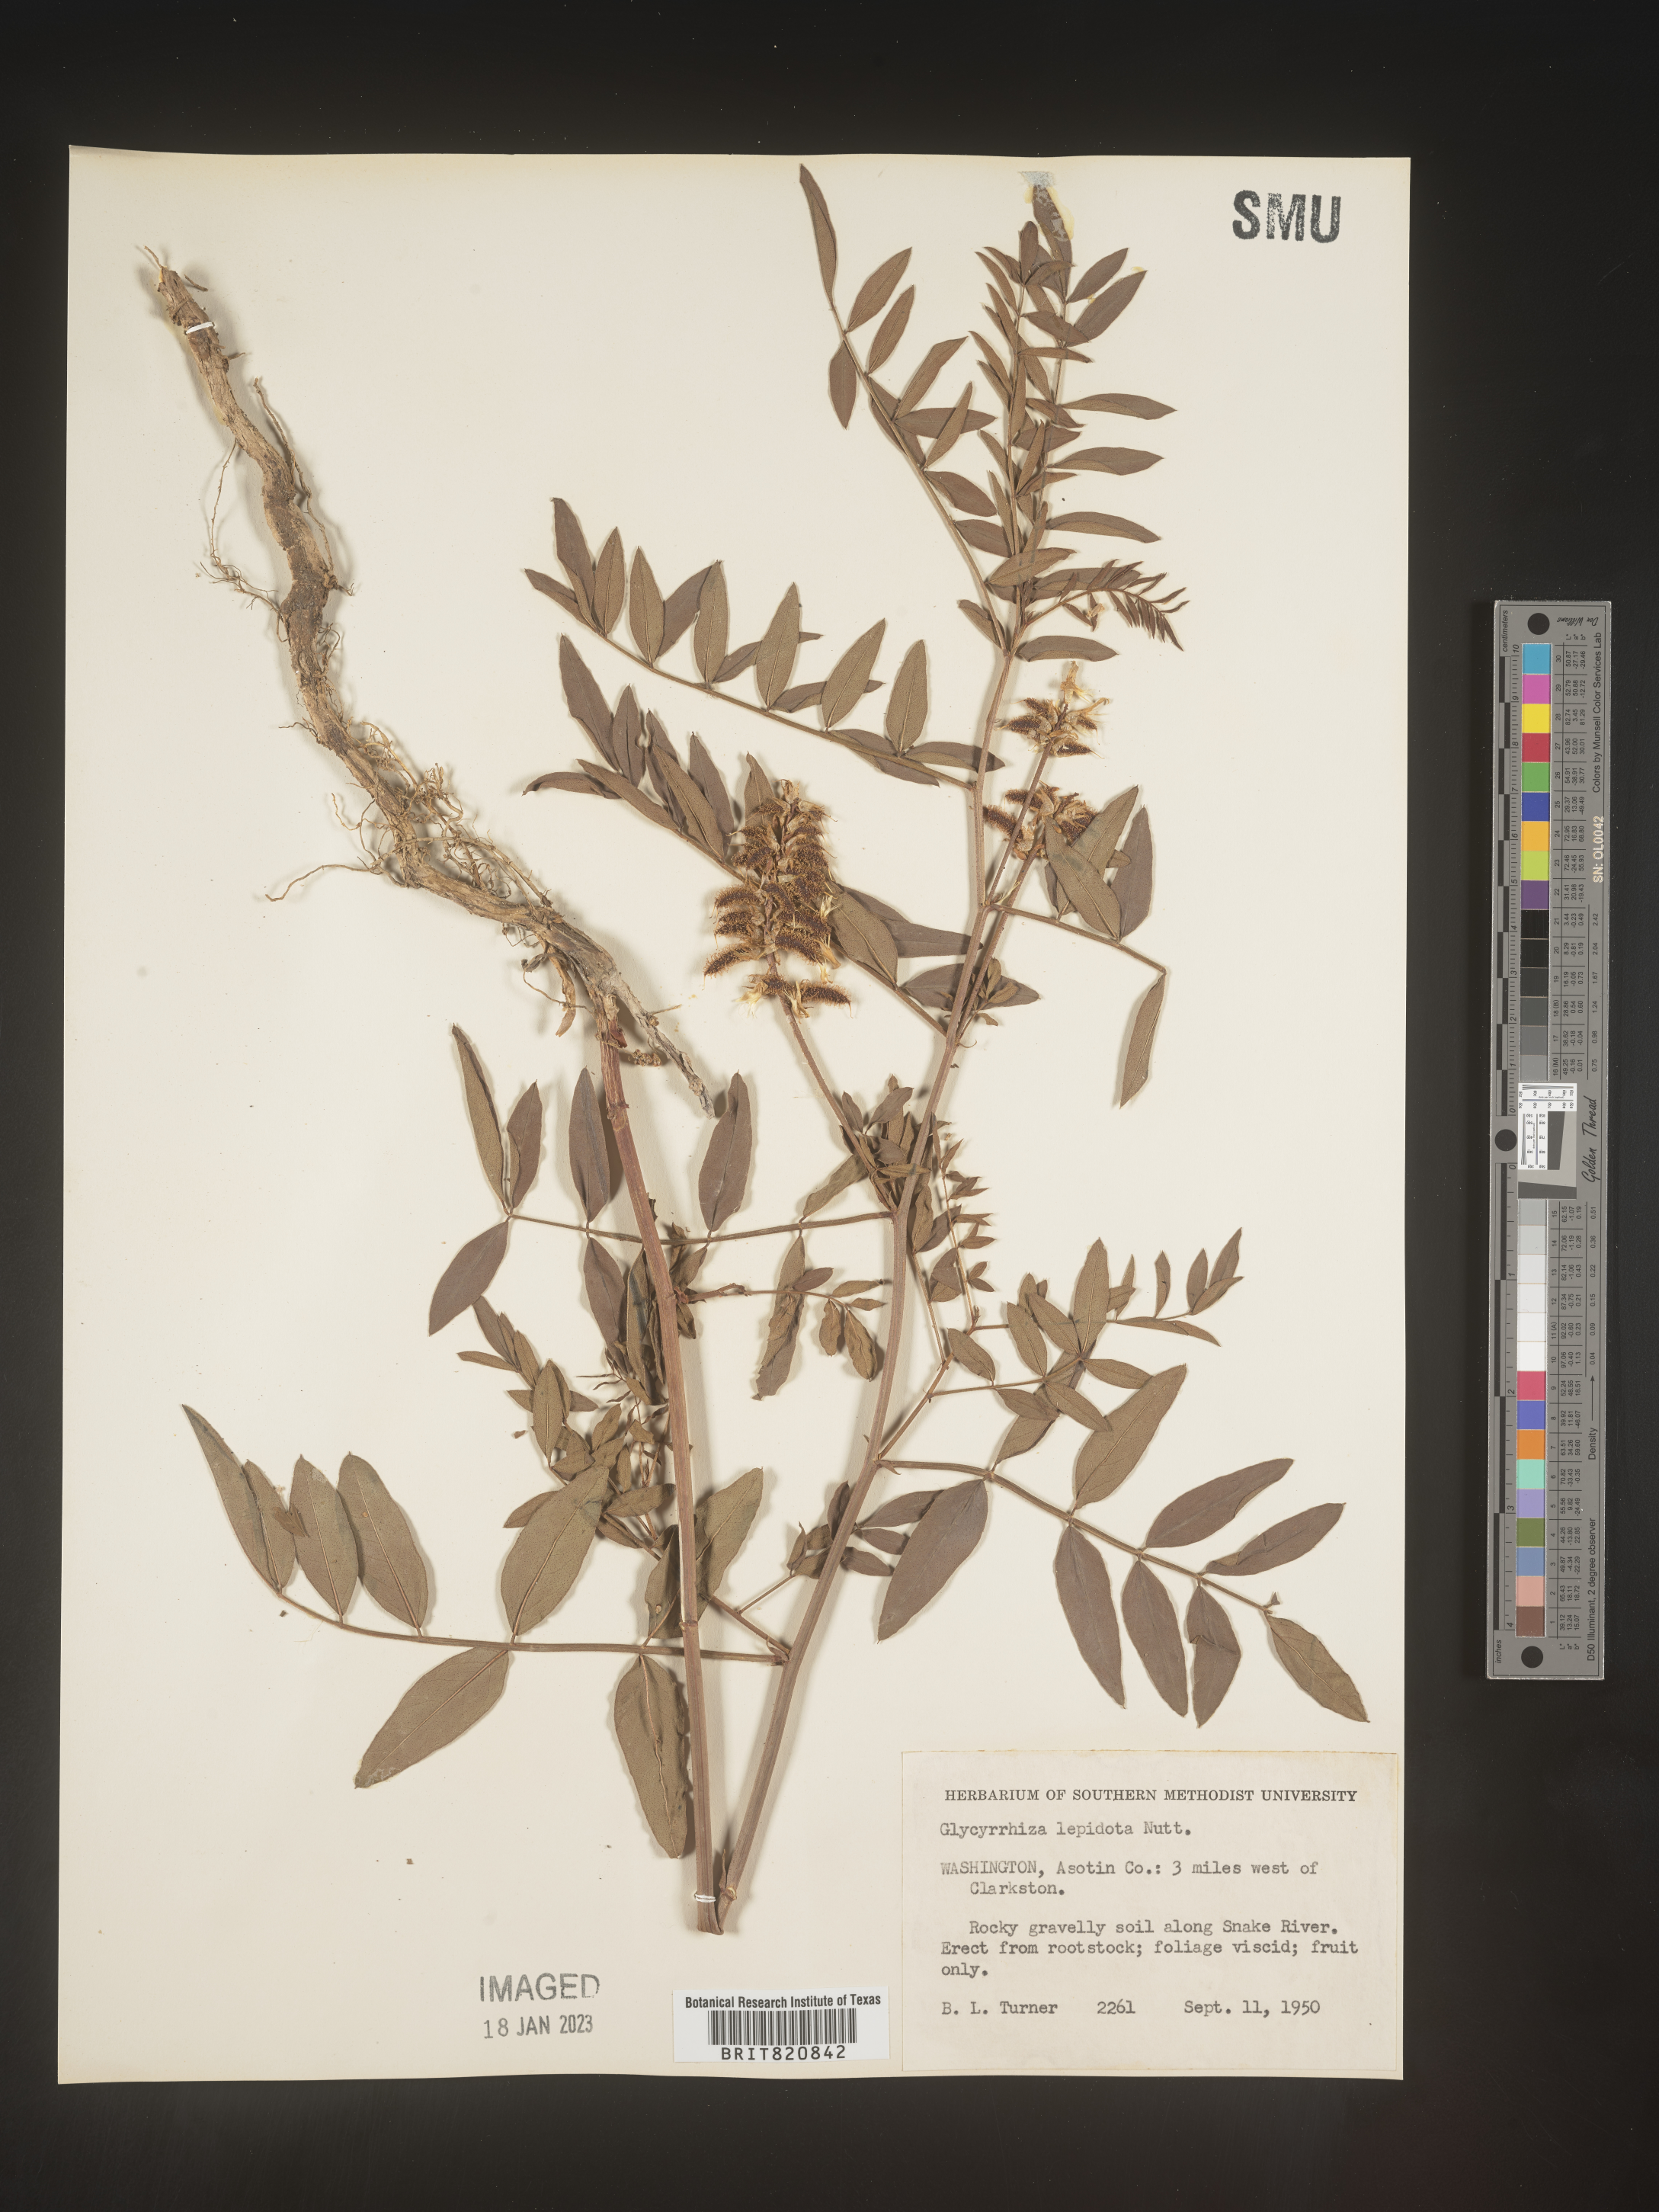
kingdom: Plantae
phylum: Tracheophyta
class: Magnoliopsida
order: Fabales
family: Fabaceae
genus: Glycyrrhiza
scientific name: Glycyrrhiza lepidota
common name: American liquorice
